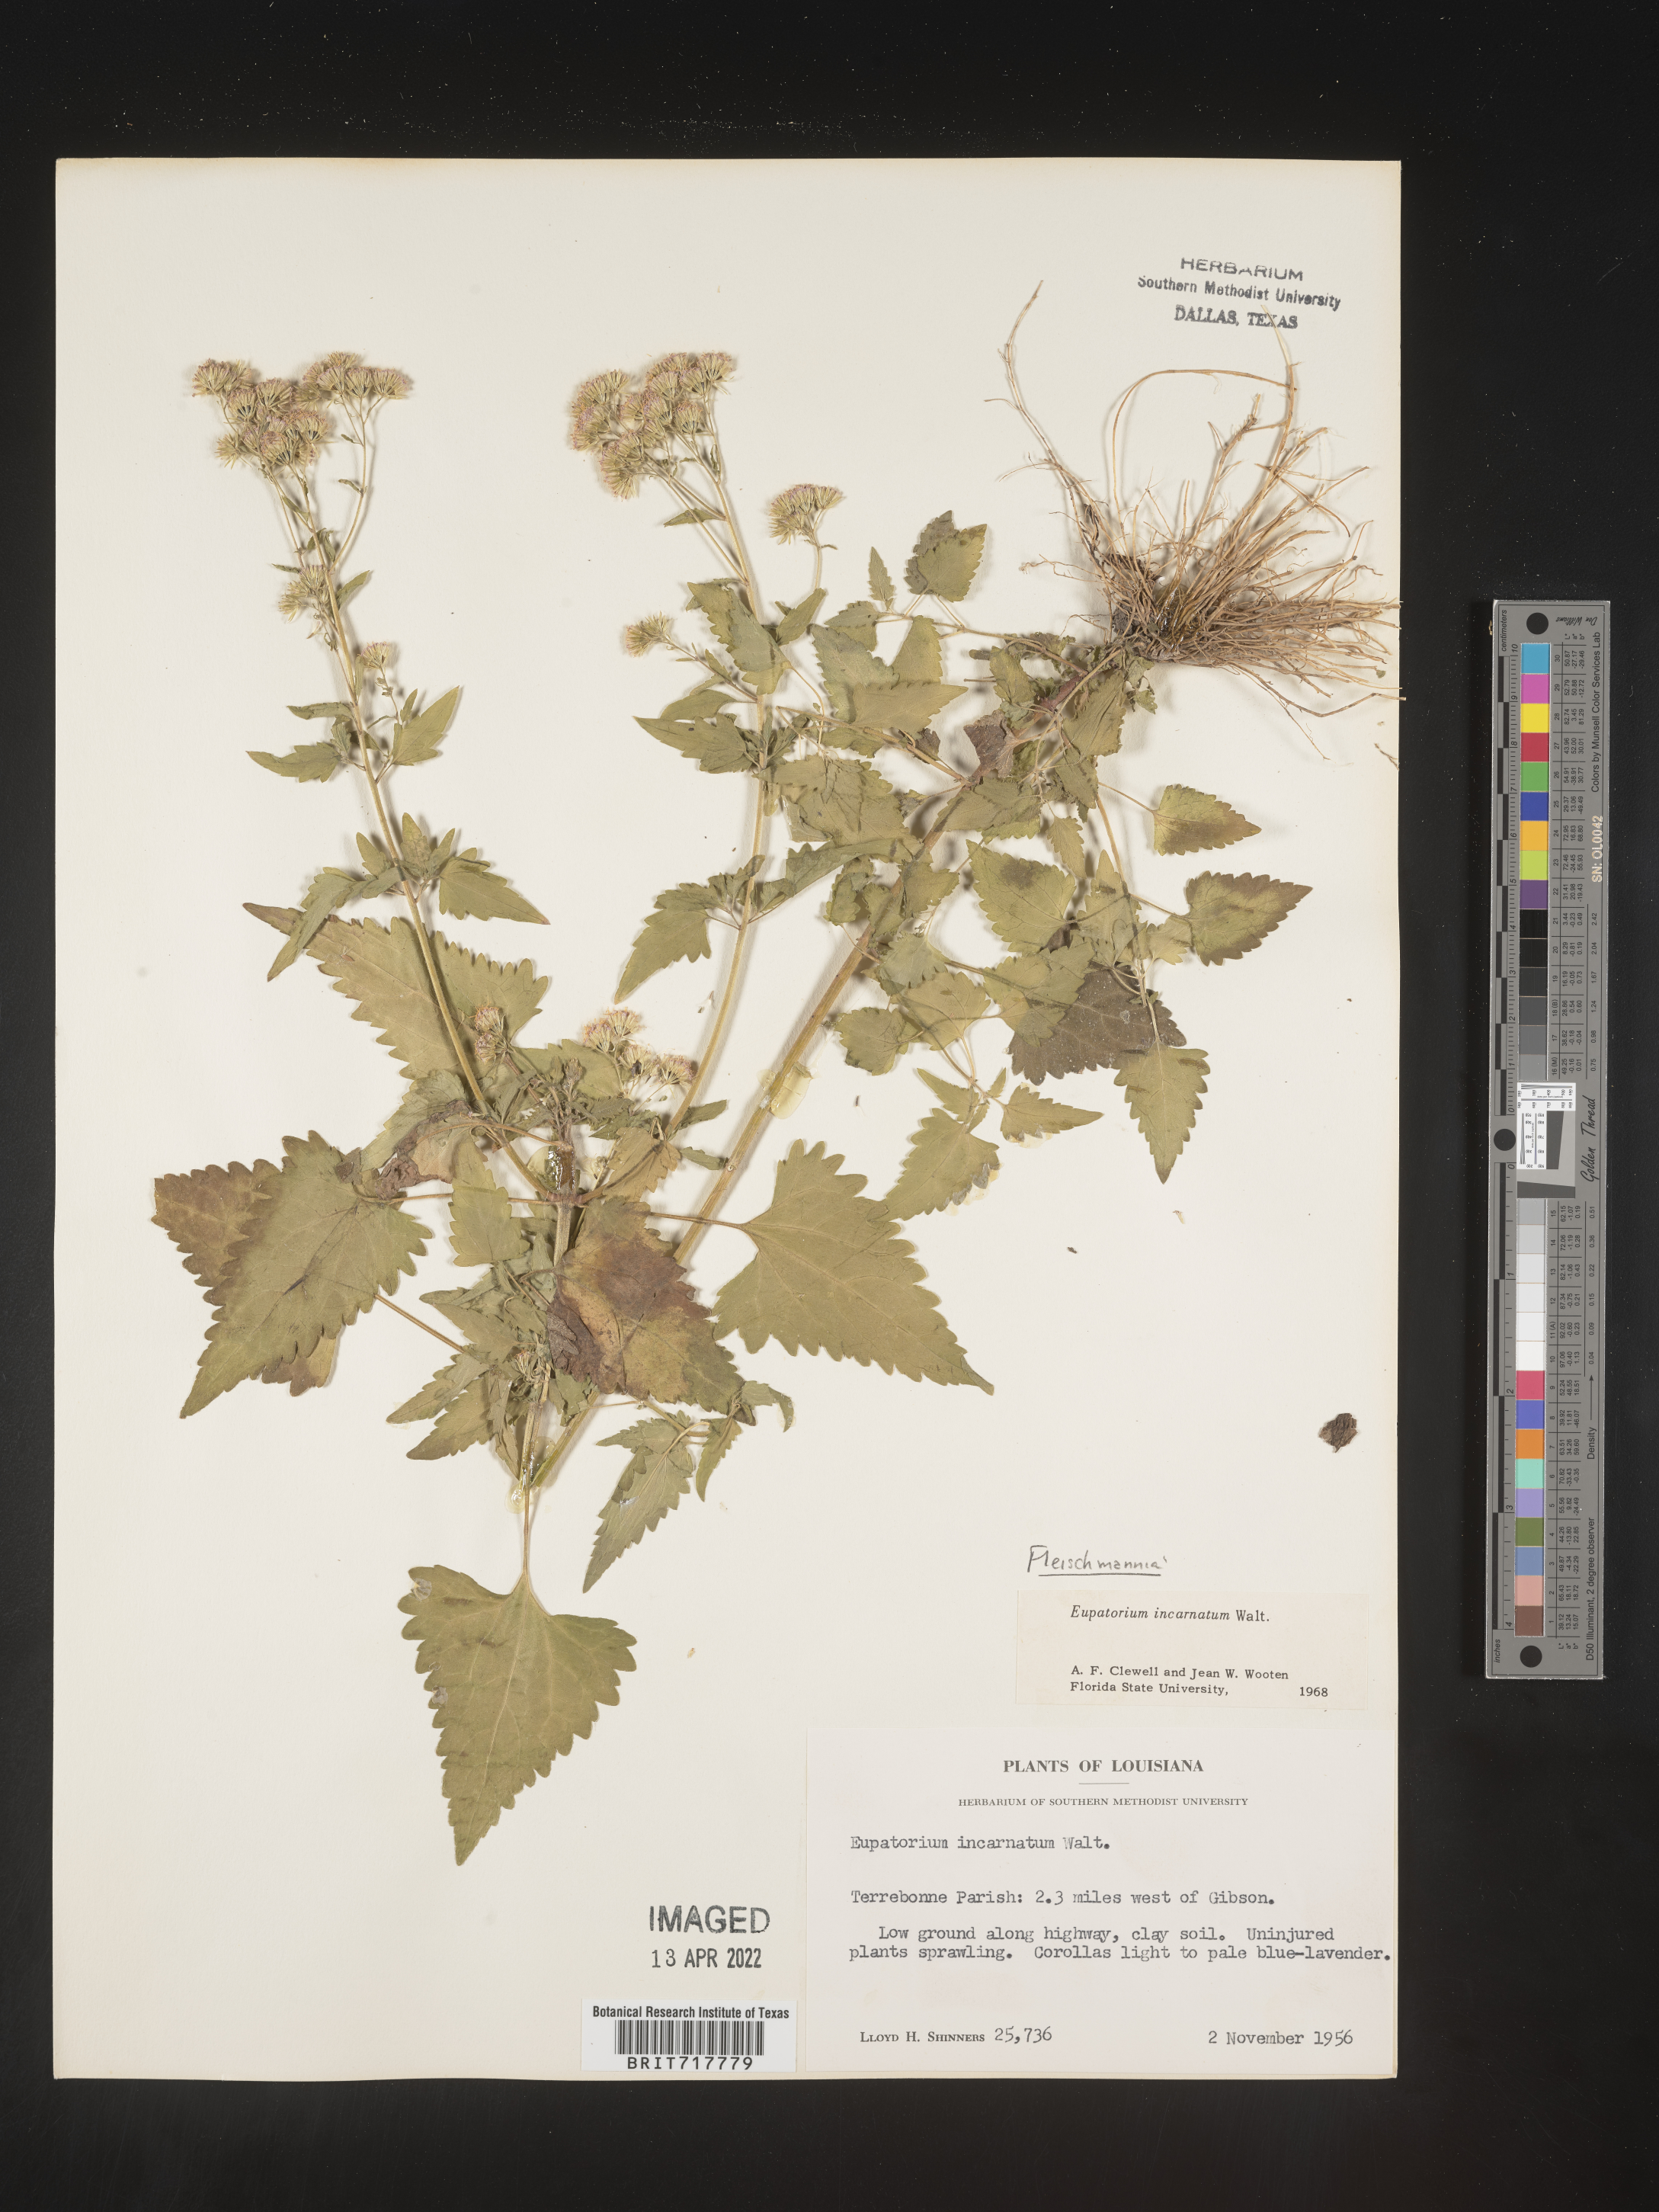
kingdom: Plantae
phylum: Tracheophyta
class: Magnoliopsida
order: Asterales
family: Asteraceae
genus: Fleischmannia
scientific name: Fleischmannia incarnata
